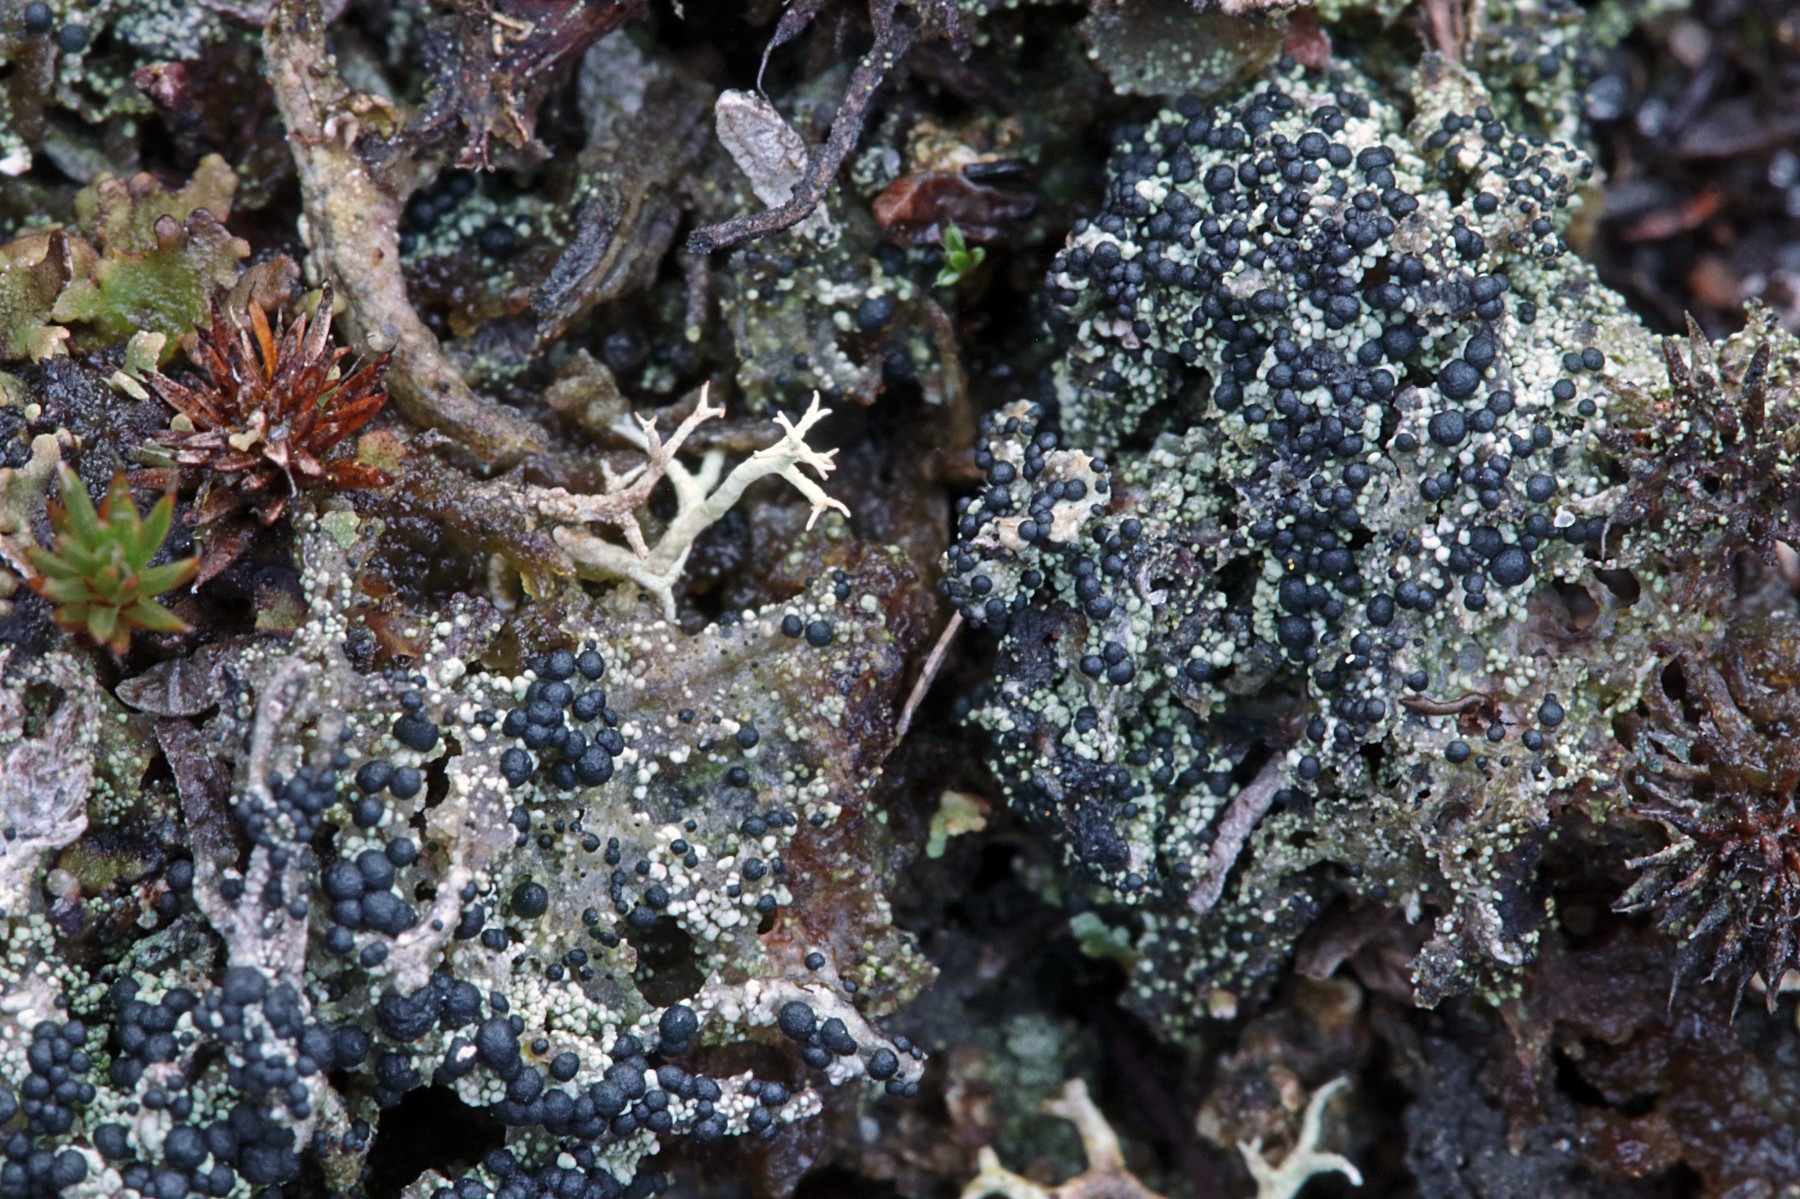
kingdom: Fungi
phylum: Ascomycota
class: Lecanoromycetes
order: Lecanorales
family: Byssolomataceae
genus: Micarea
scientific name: Micarea lignaria
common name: tørve-knaplav
